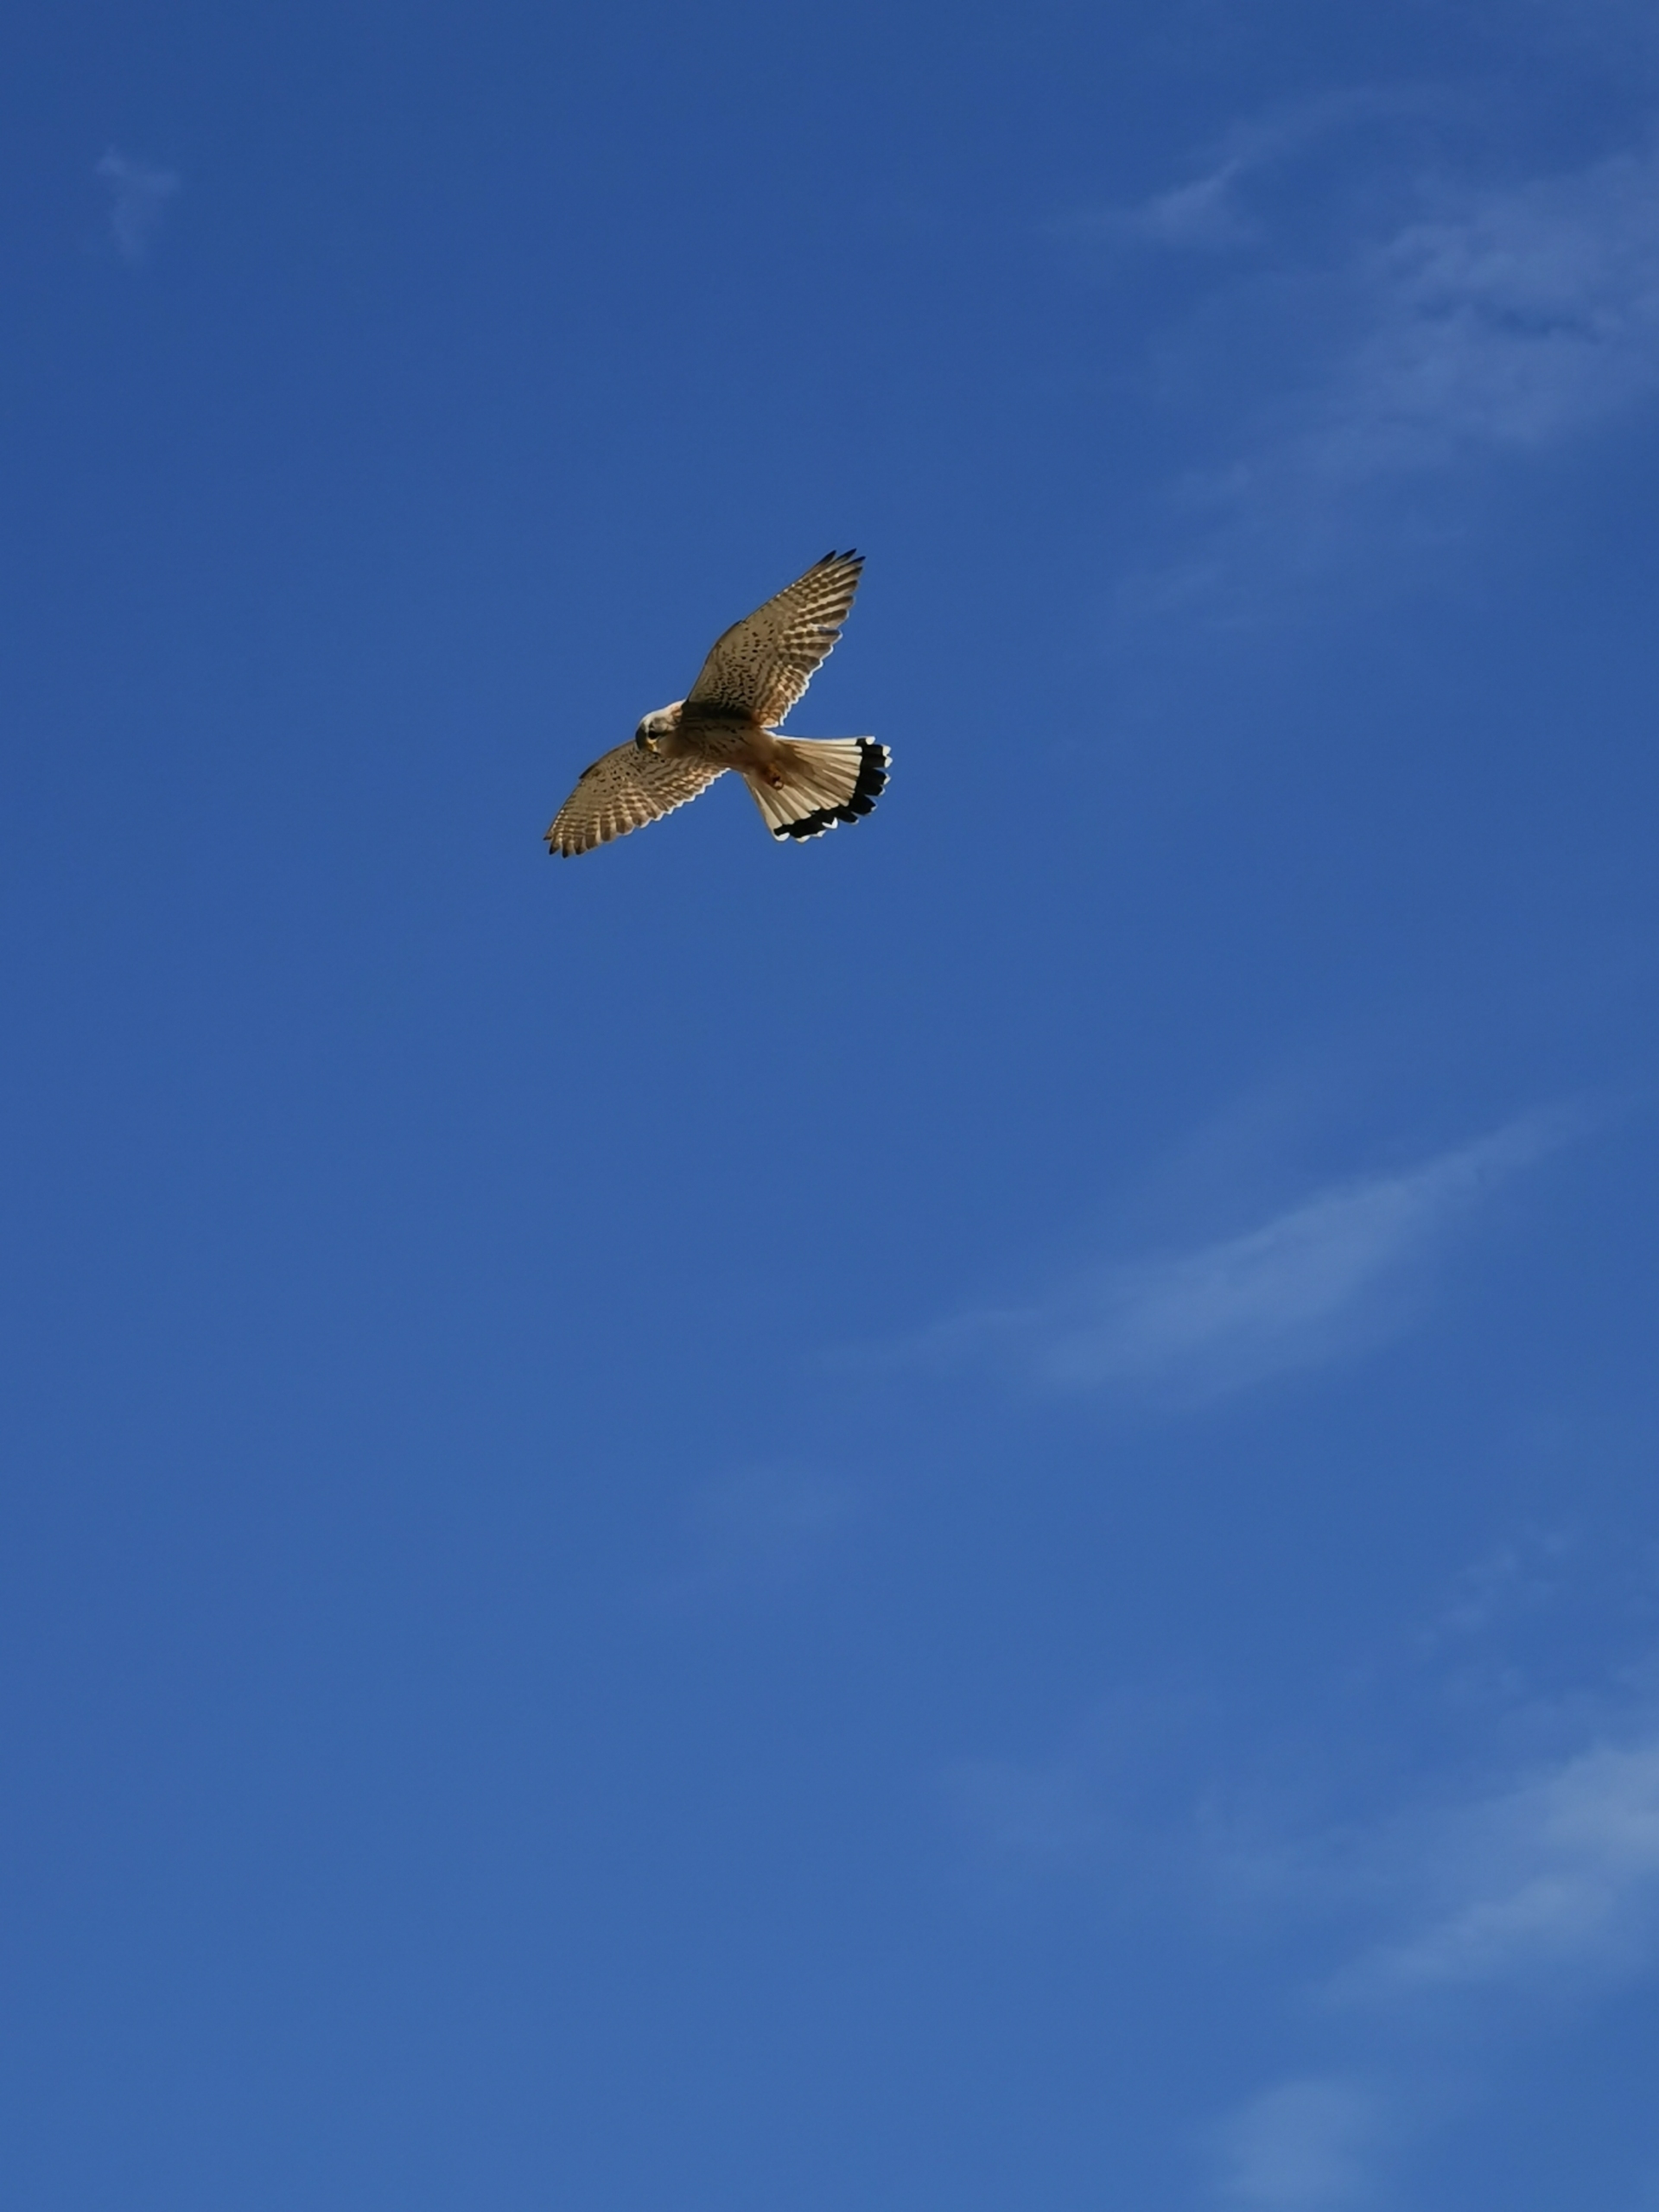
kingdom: Animalia
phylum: Chordata
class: Aves
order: Falconiformes
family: Falconidae
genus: Falco
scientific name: Falco tinnunculus
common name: Tårnfalk
